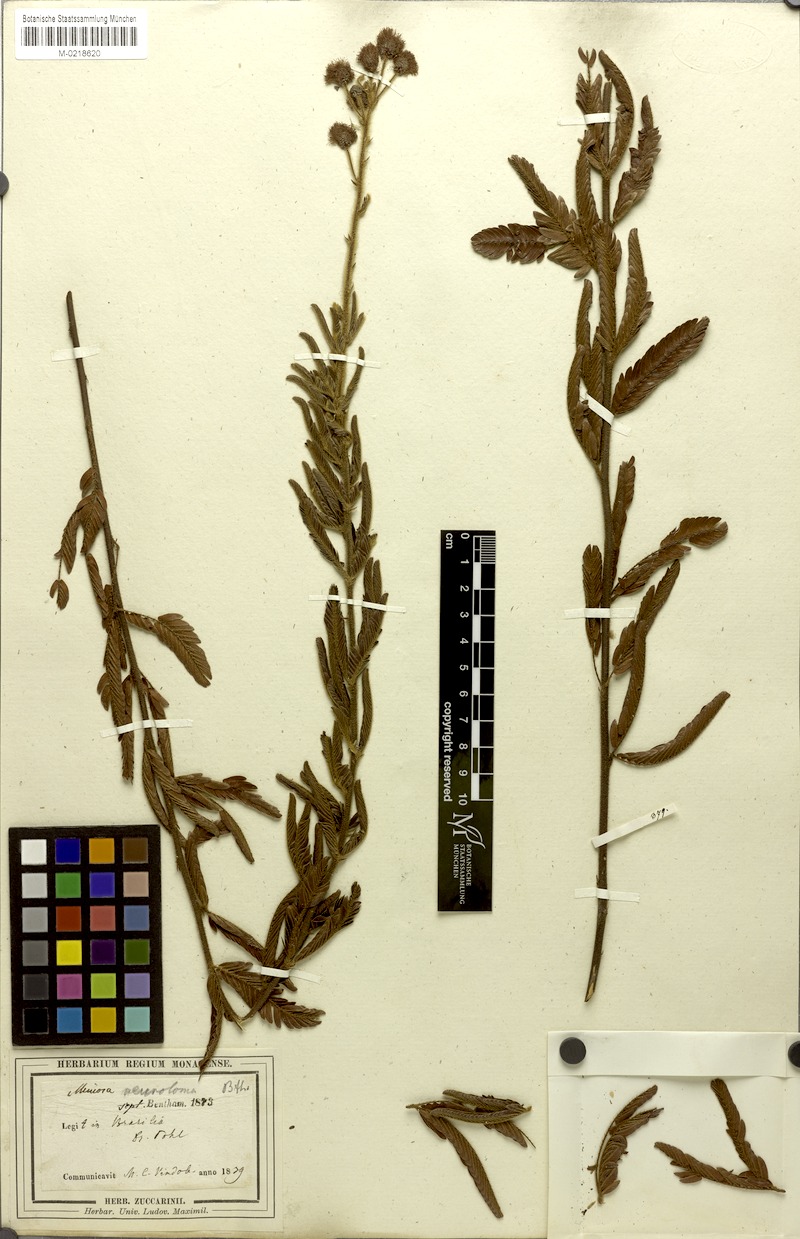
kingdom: Plantae
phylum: Tracheophyta
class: Magnoliopsida
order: Fabales
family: Fabaceae
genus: Mimosa
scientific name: Mimosa distans
